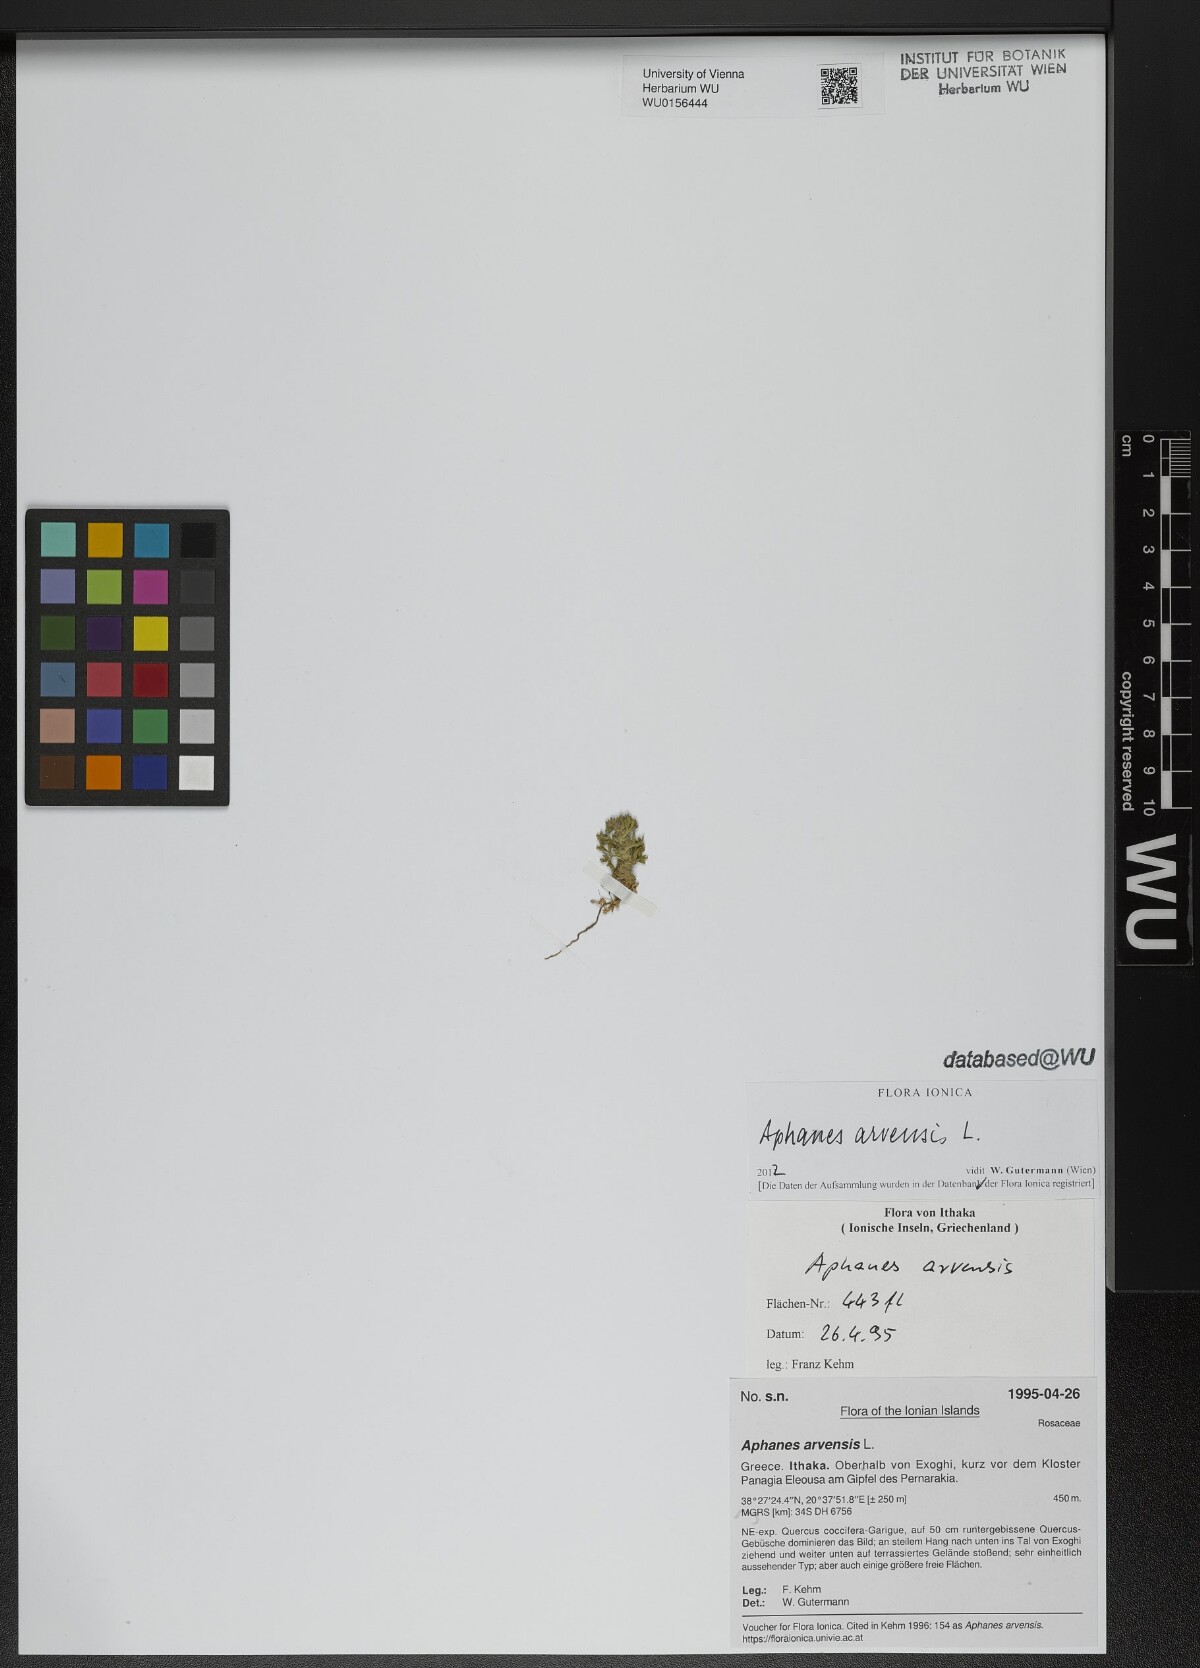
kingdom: Plantae
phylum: Tracheophyta
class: Magnoliopsida
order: Rosales
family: Rosaceae
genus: Aphanes
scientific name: Aphanes arvensis
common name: Parsley-piert
